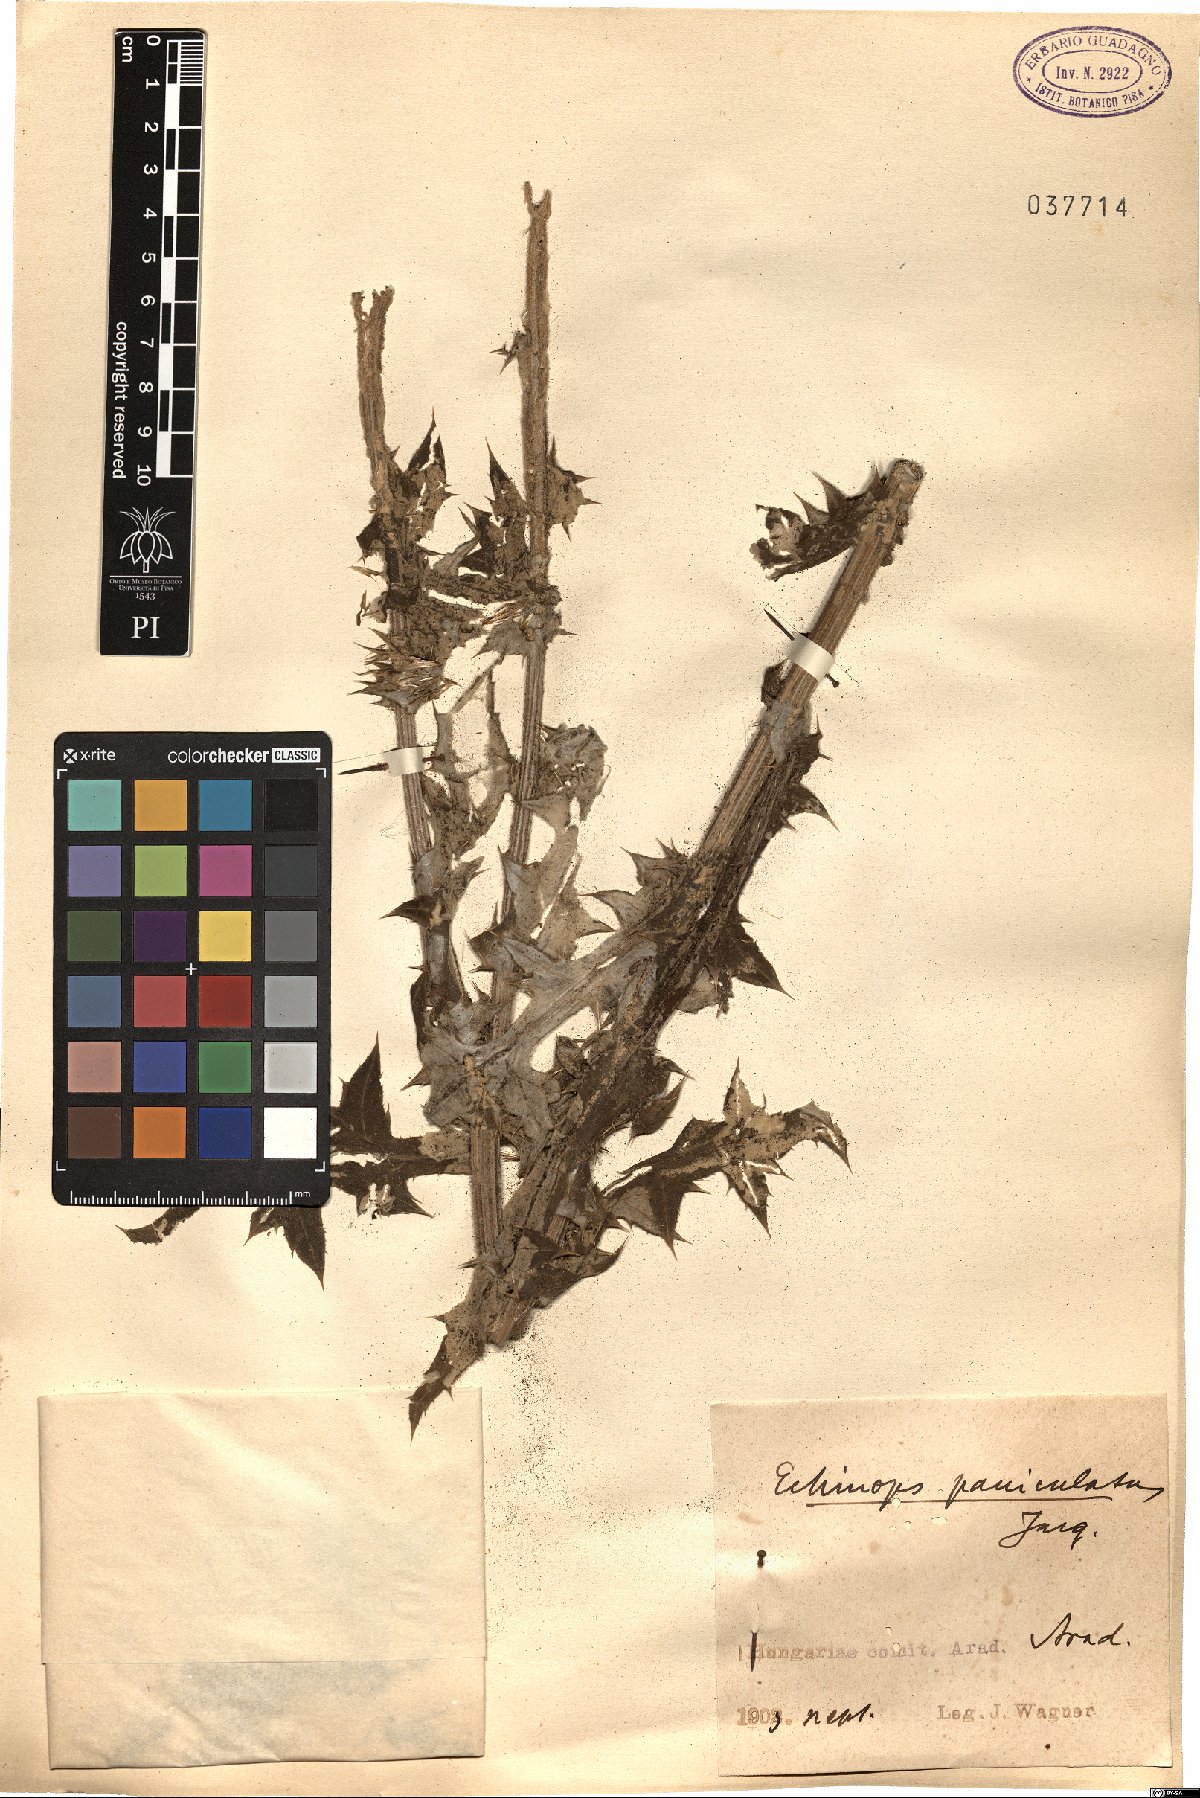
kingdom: Plantae
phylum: Tracheophyta
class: Magnoliopsida
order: Asterales
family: Asteraceae
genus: Echinops
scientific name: Echinops sphaerocephalus
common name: Glandular globe-thistle
